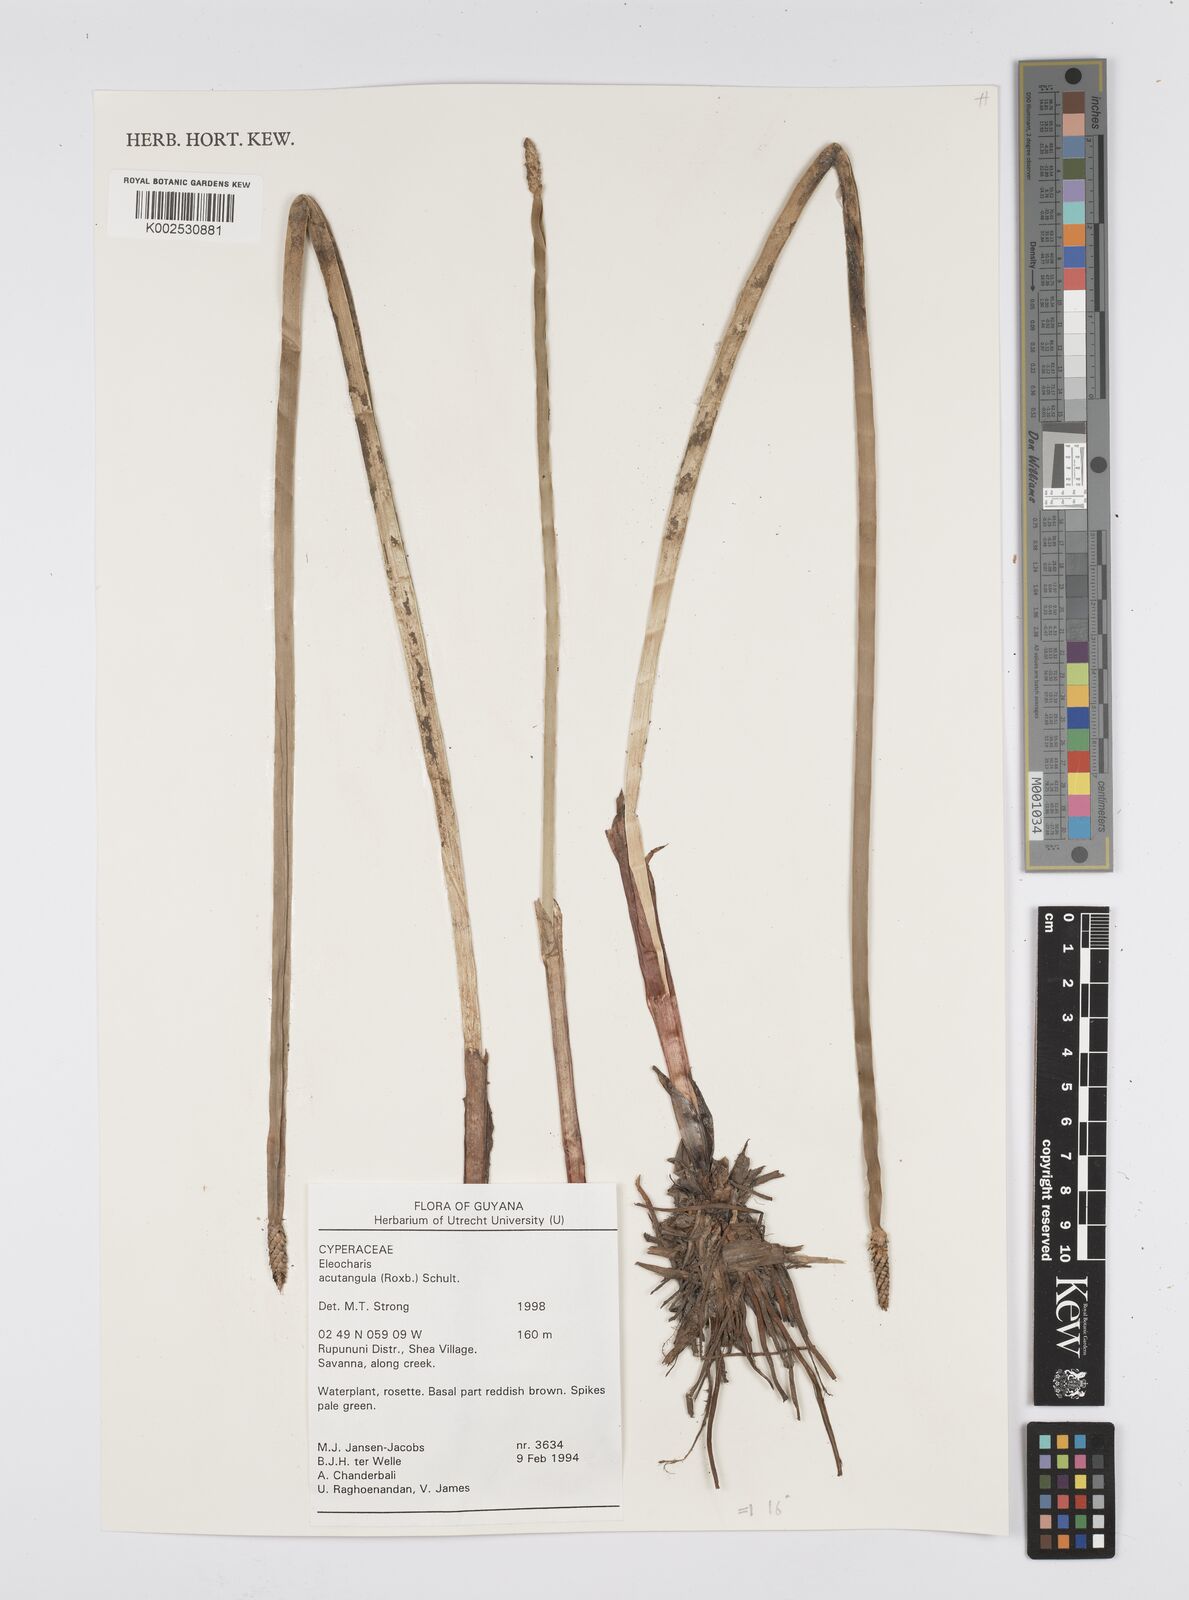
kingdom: Plantae
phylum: Tracheophyta
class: Liliopsida
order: Poales
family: Cyperaceae
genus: Eleocharis
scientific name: Eleocharis acutangula
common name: Acute spikerush
